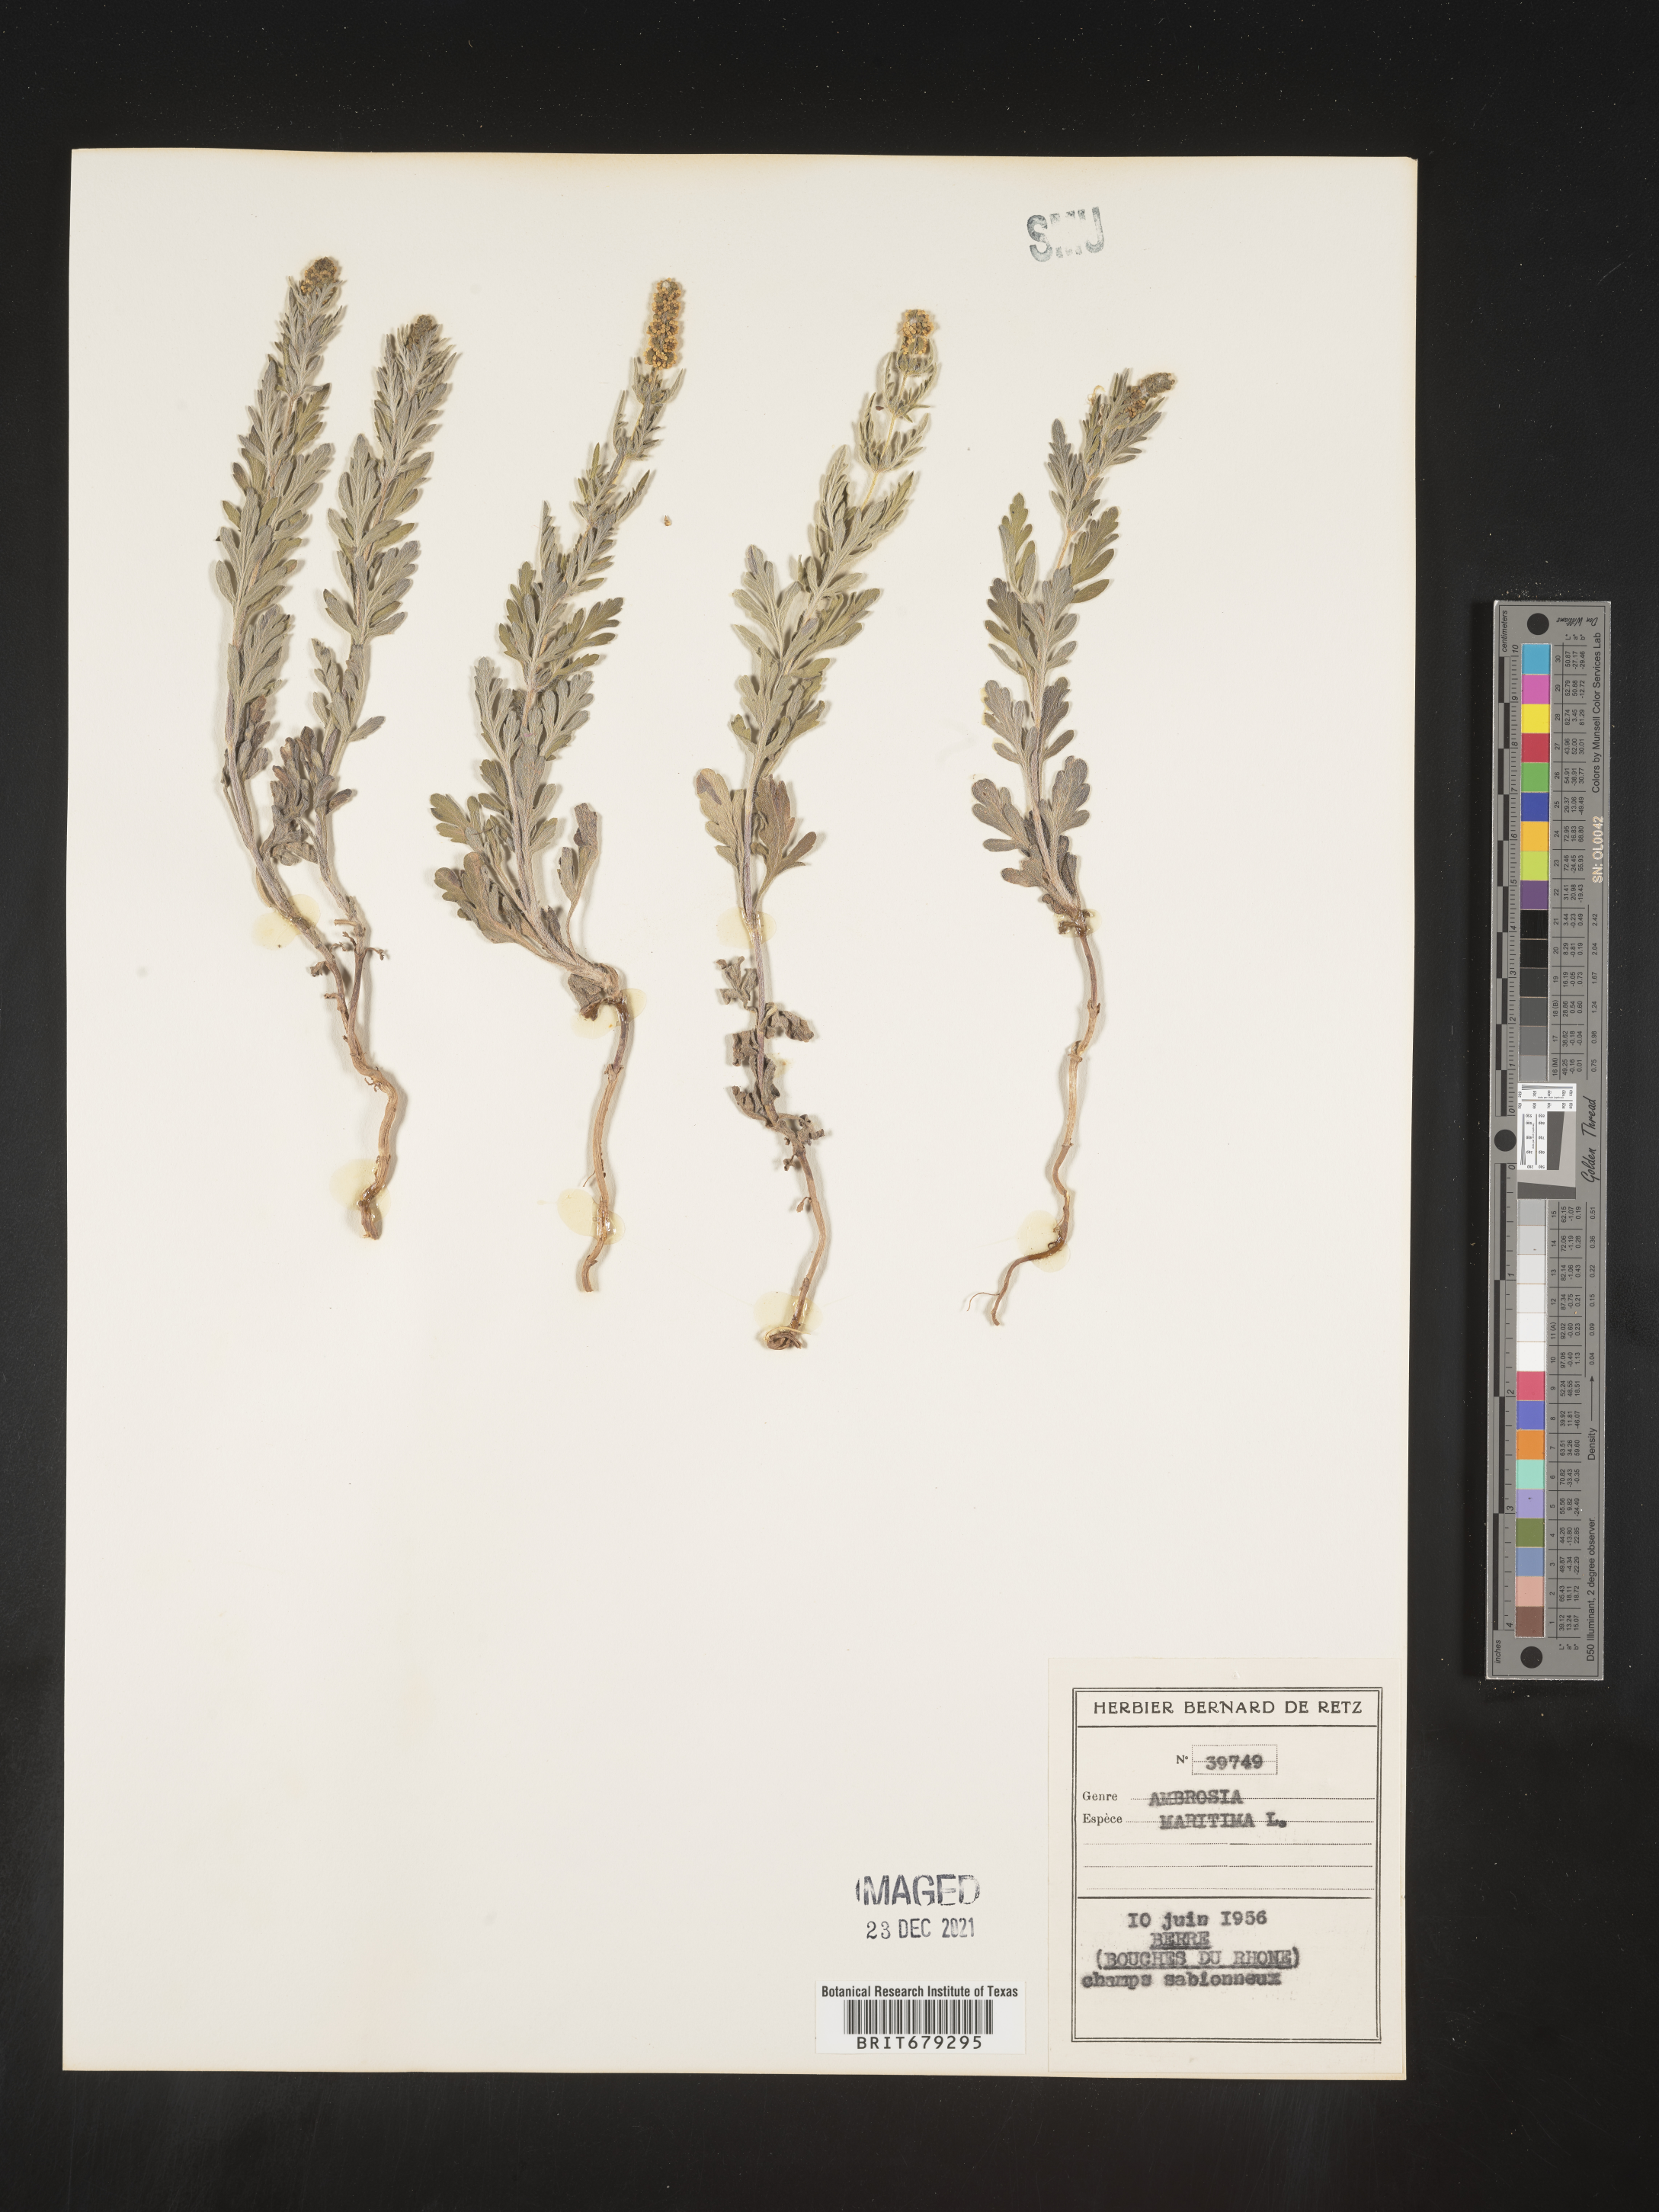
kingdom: Plantae
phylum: Tracheophyta
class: Magnoliopsida
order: Asterales
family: Asteraceae
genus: Ambrosia
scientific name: Ambrosia
